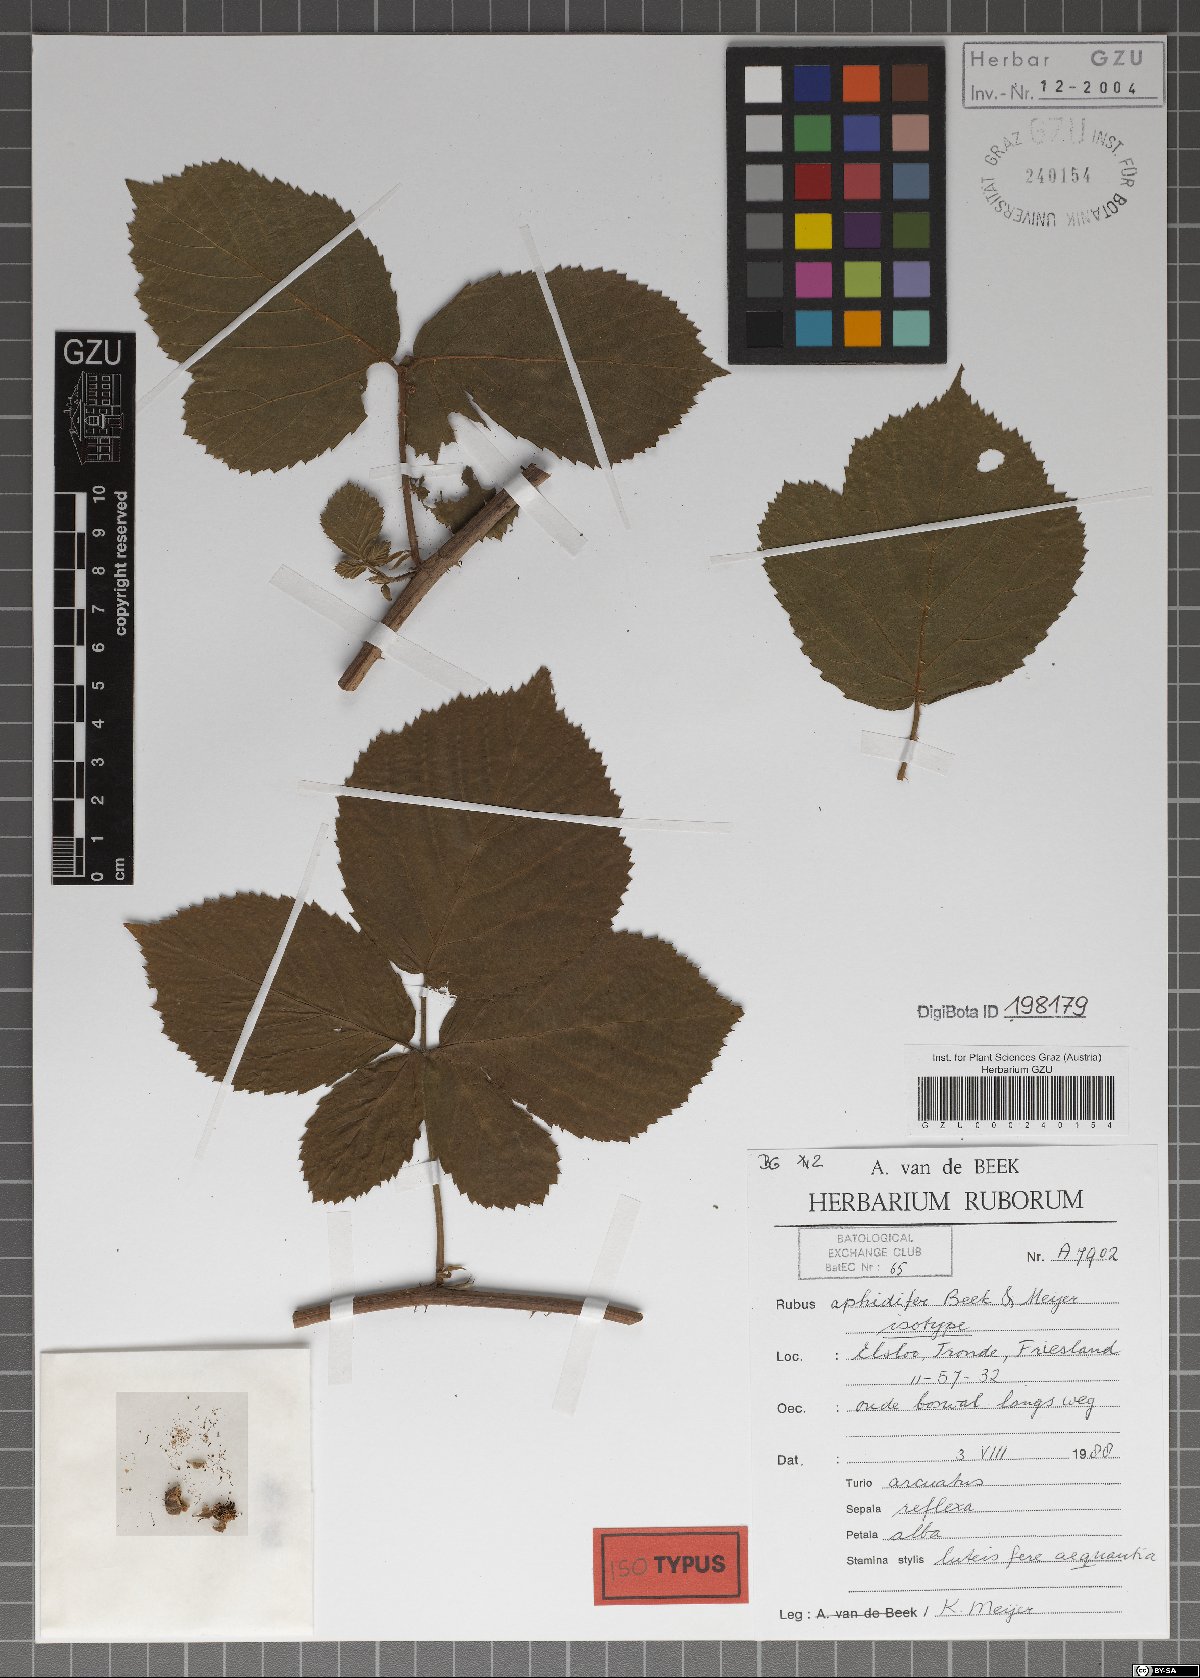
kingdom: Plantae
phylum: Tracheophyta
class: Magnoliopsida
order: Rosales
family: Rosaceae
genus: Rubus
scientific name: Rubus aphidifer
